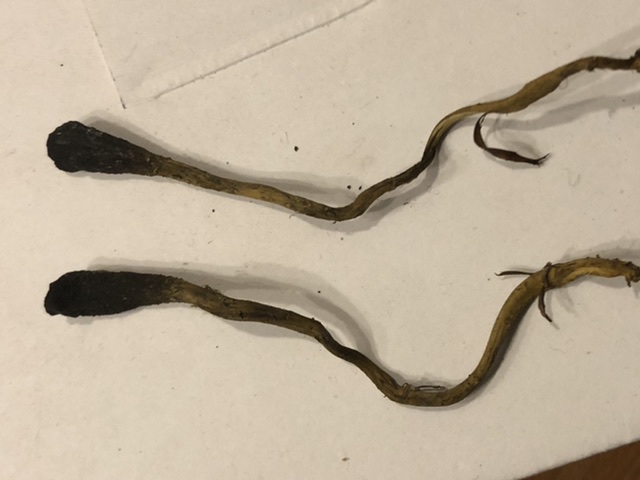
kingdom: Fungi
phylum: Ascomycota
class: Sordariomycetes
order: Hypocreales
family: Ophiocordycipitaceae
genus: Tolypocladium
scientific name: Tolypocladium ophioglossoides
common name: slank snyltekølle
